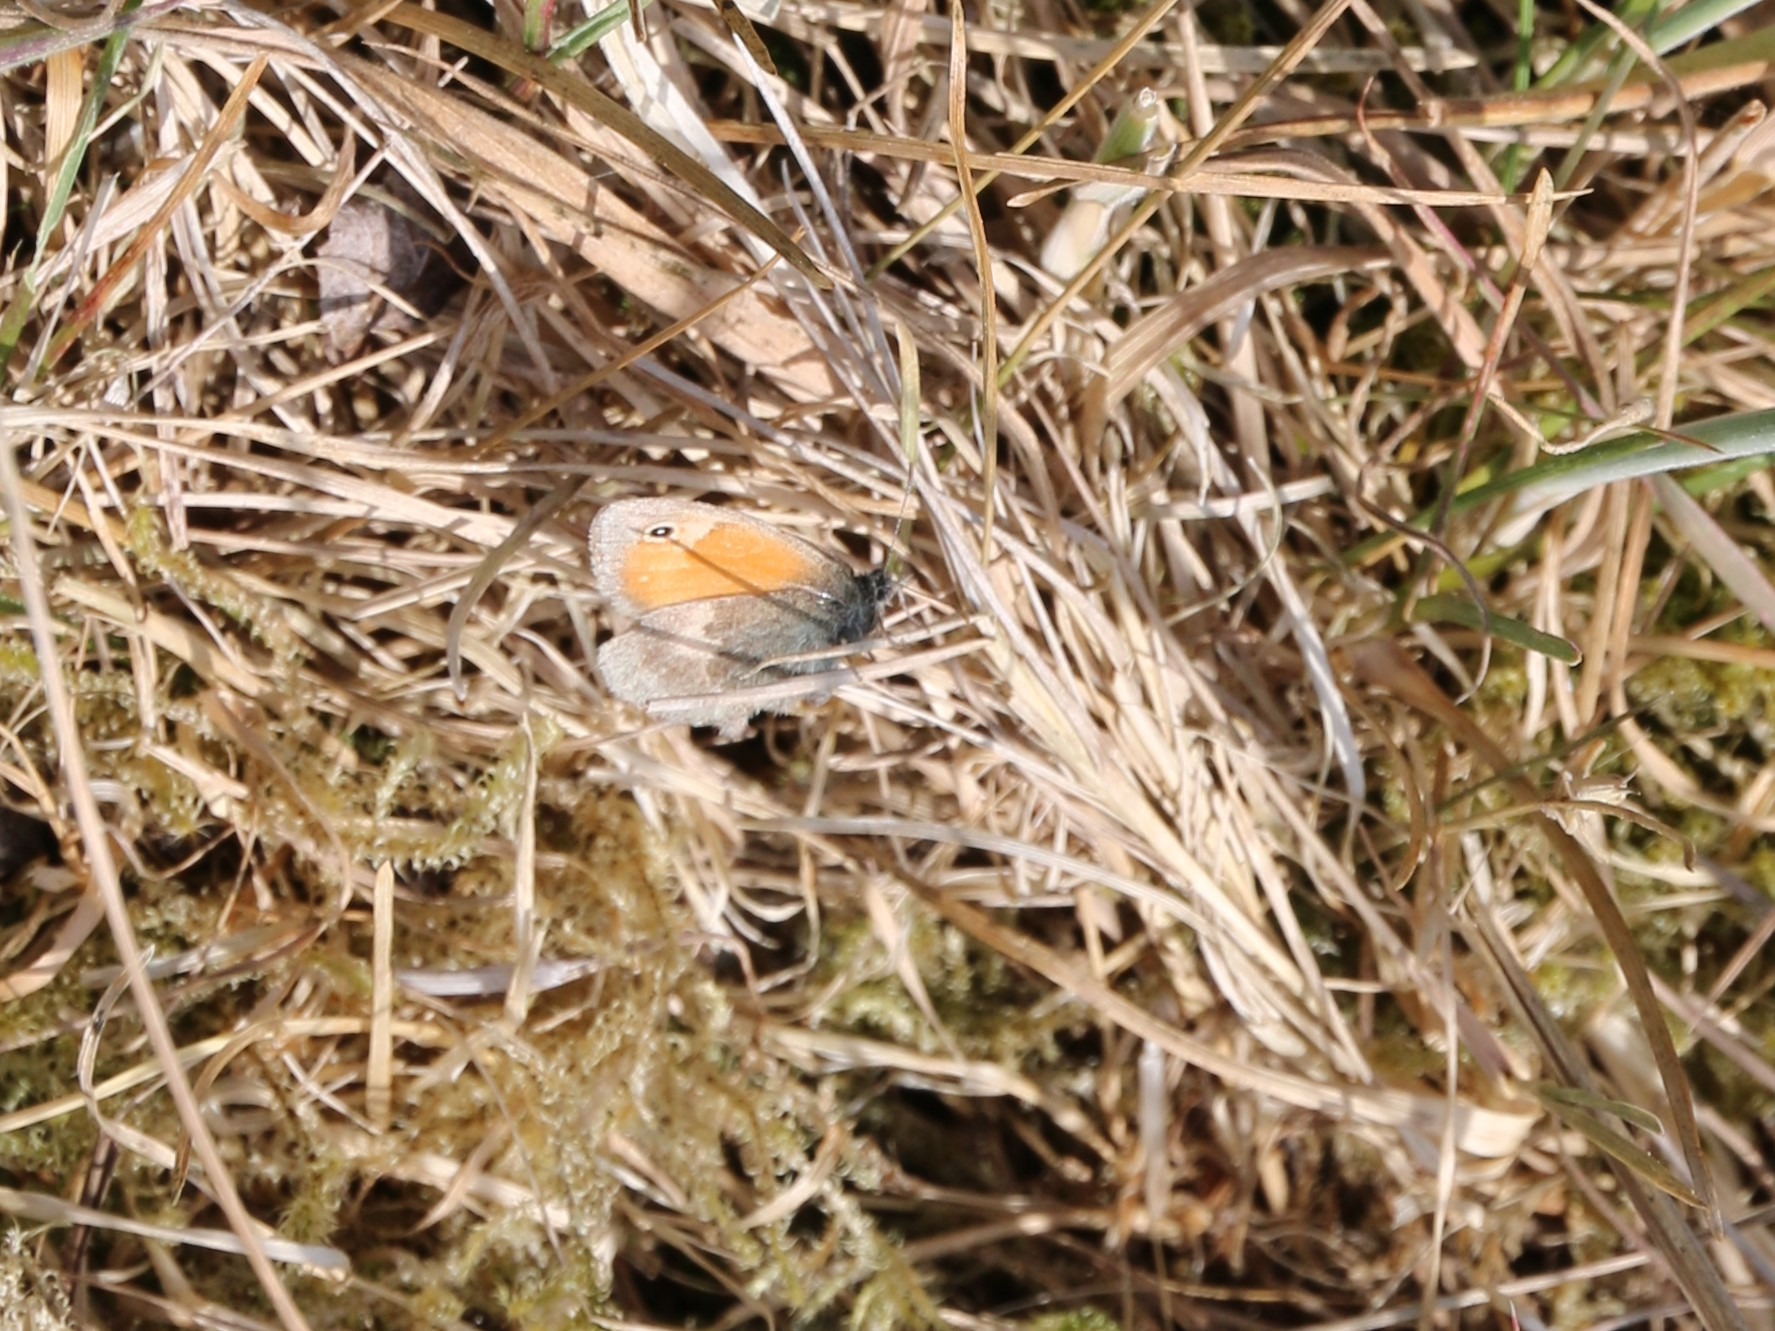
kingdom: Animalia
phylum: Arthropoda
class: Insecta
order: Lepidoptera
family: Nymphalidae
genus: Coenonympha
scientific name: Coenonympha pamphilus
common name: Okkergul randøje
